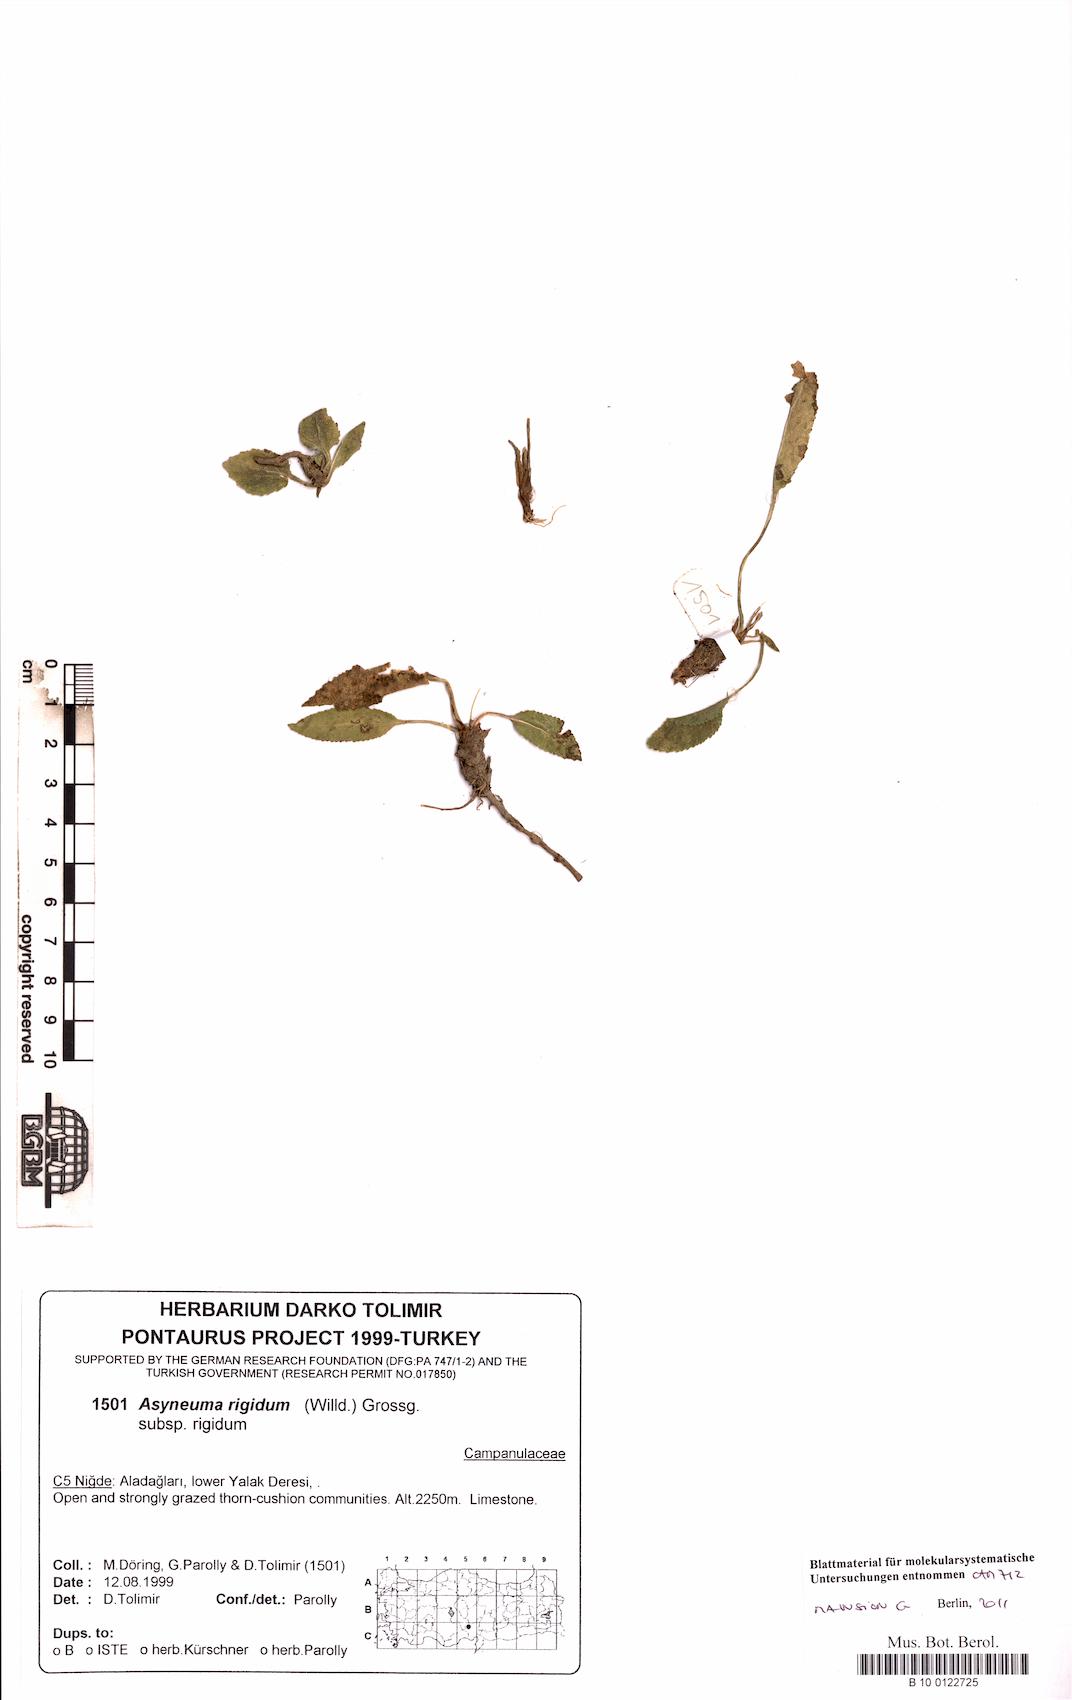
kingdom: Plantae
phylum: Tracheophyta
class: Magnoliopsida
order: Asterales
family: Campanulaceae
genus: Asyneuma
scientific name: Asyneuma rigidum
